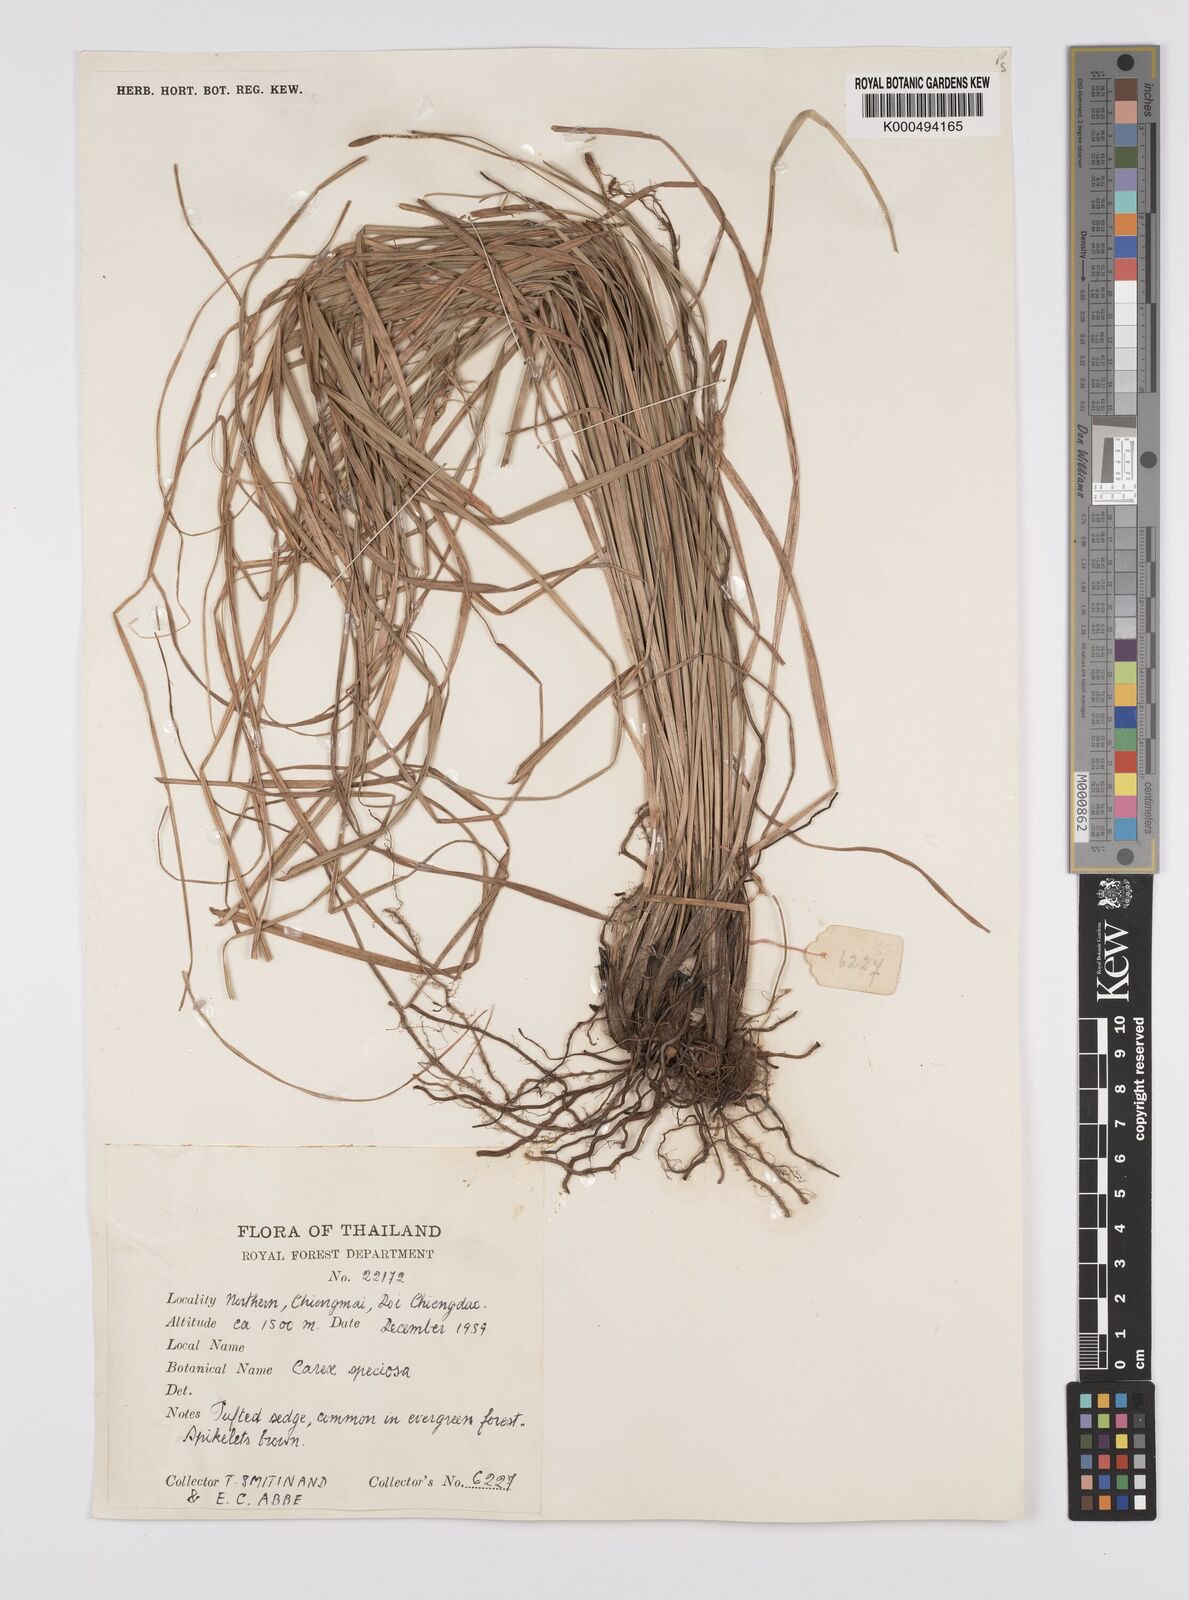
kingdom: Plantae
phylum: Tracheophyta
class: Liliopsida
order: Poales
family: Cyperaceae
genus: Carex
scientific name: Carex speciosa
